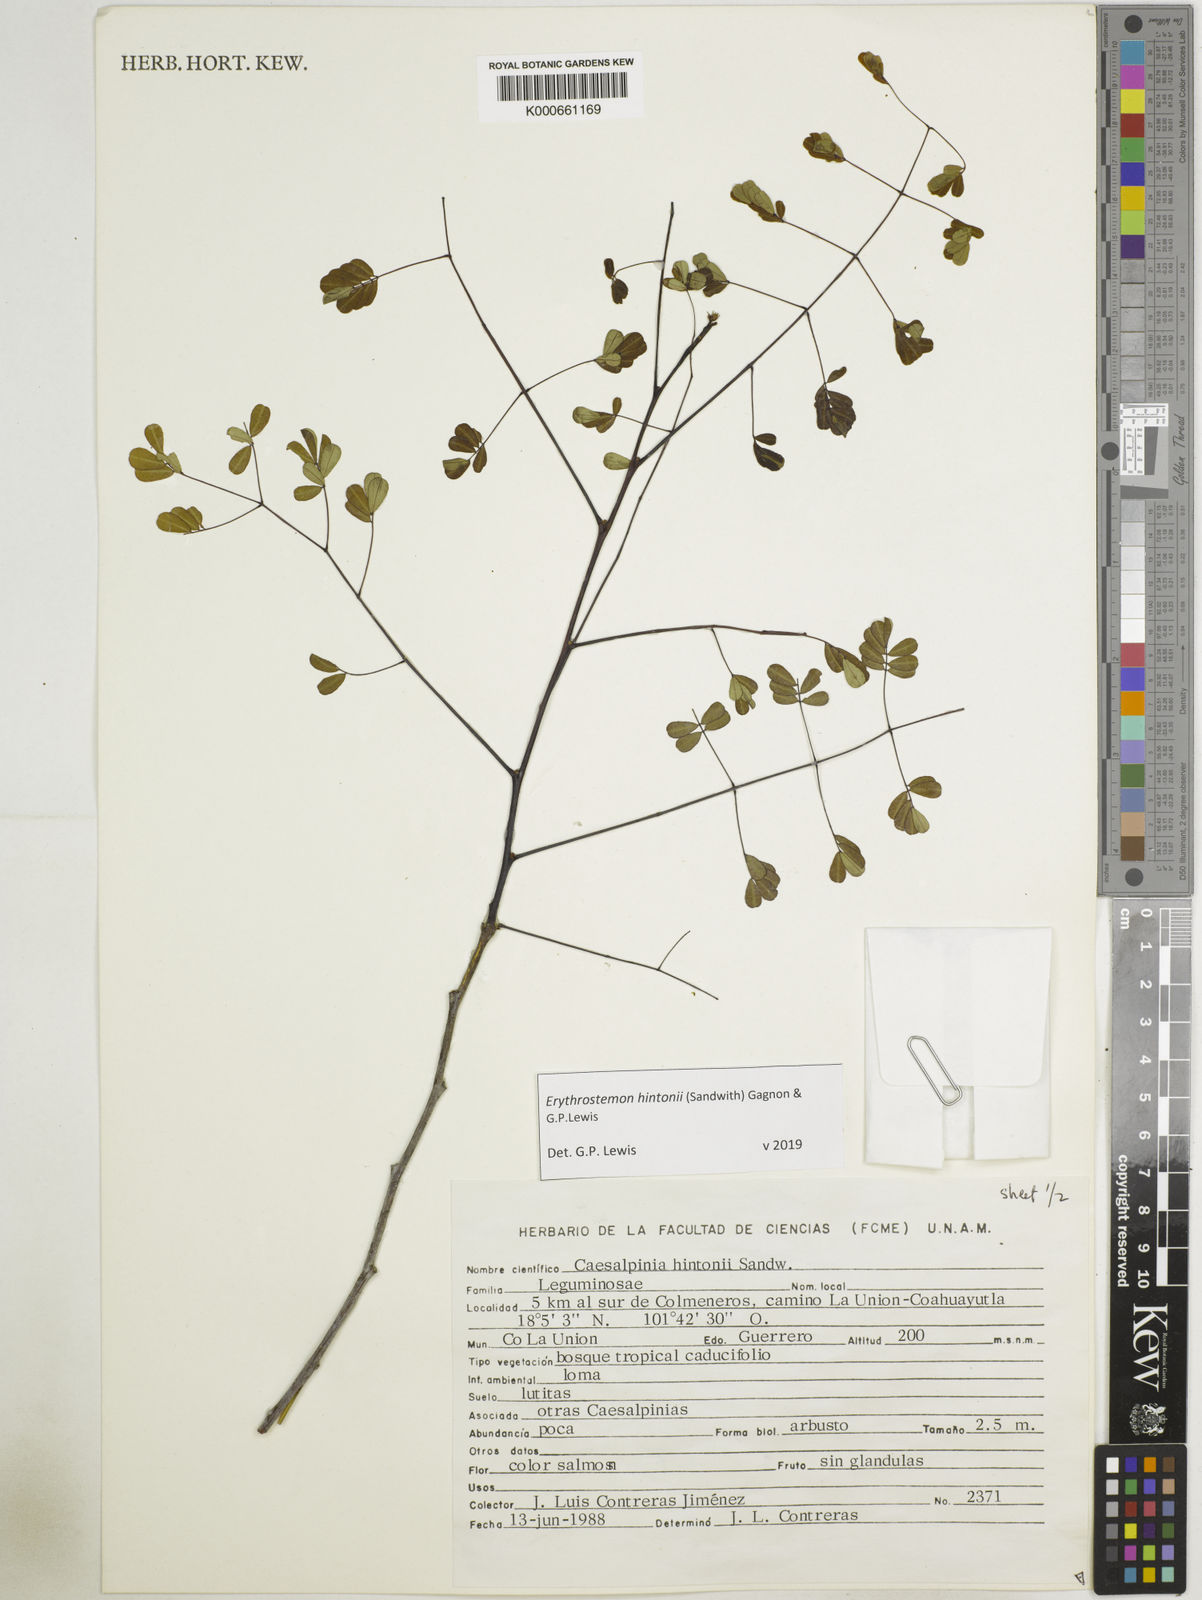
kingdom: Plantae
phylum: Tracheophyta
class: Magnoliopsida
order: Fabales
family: Fabaceae
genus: Erythrostemon
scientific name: Erythrostemon hintonii
